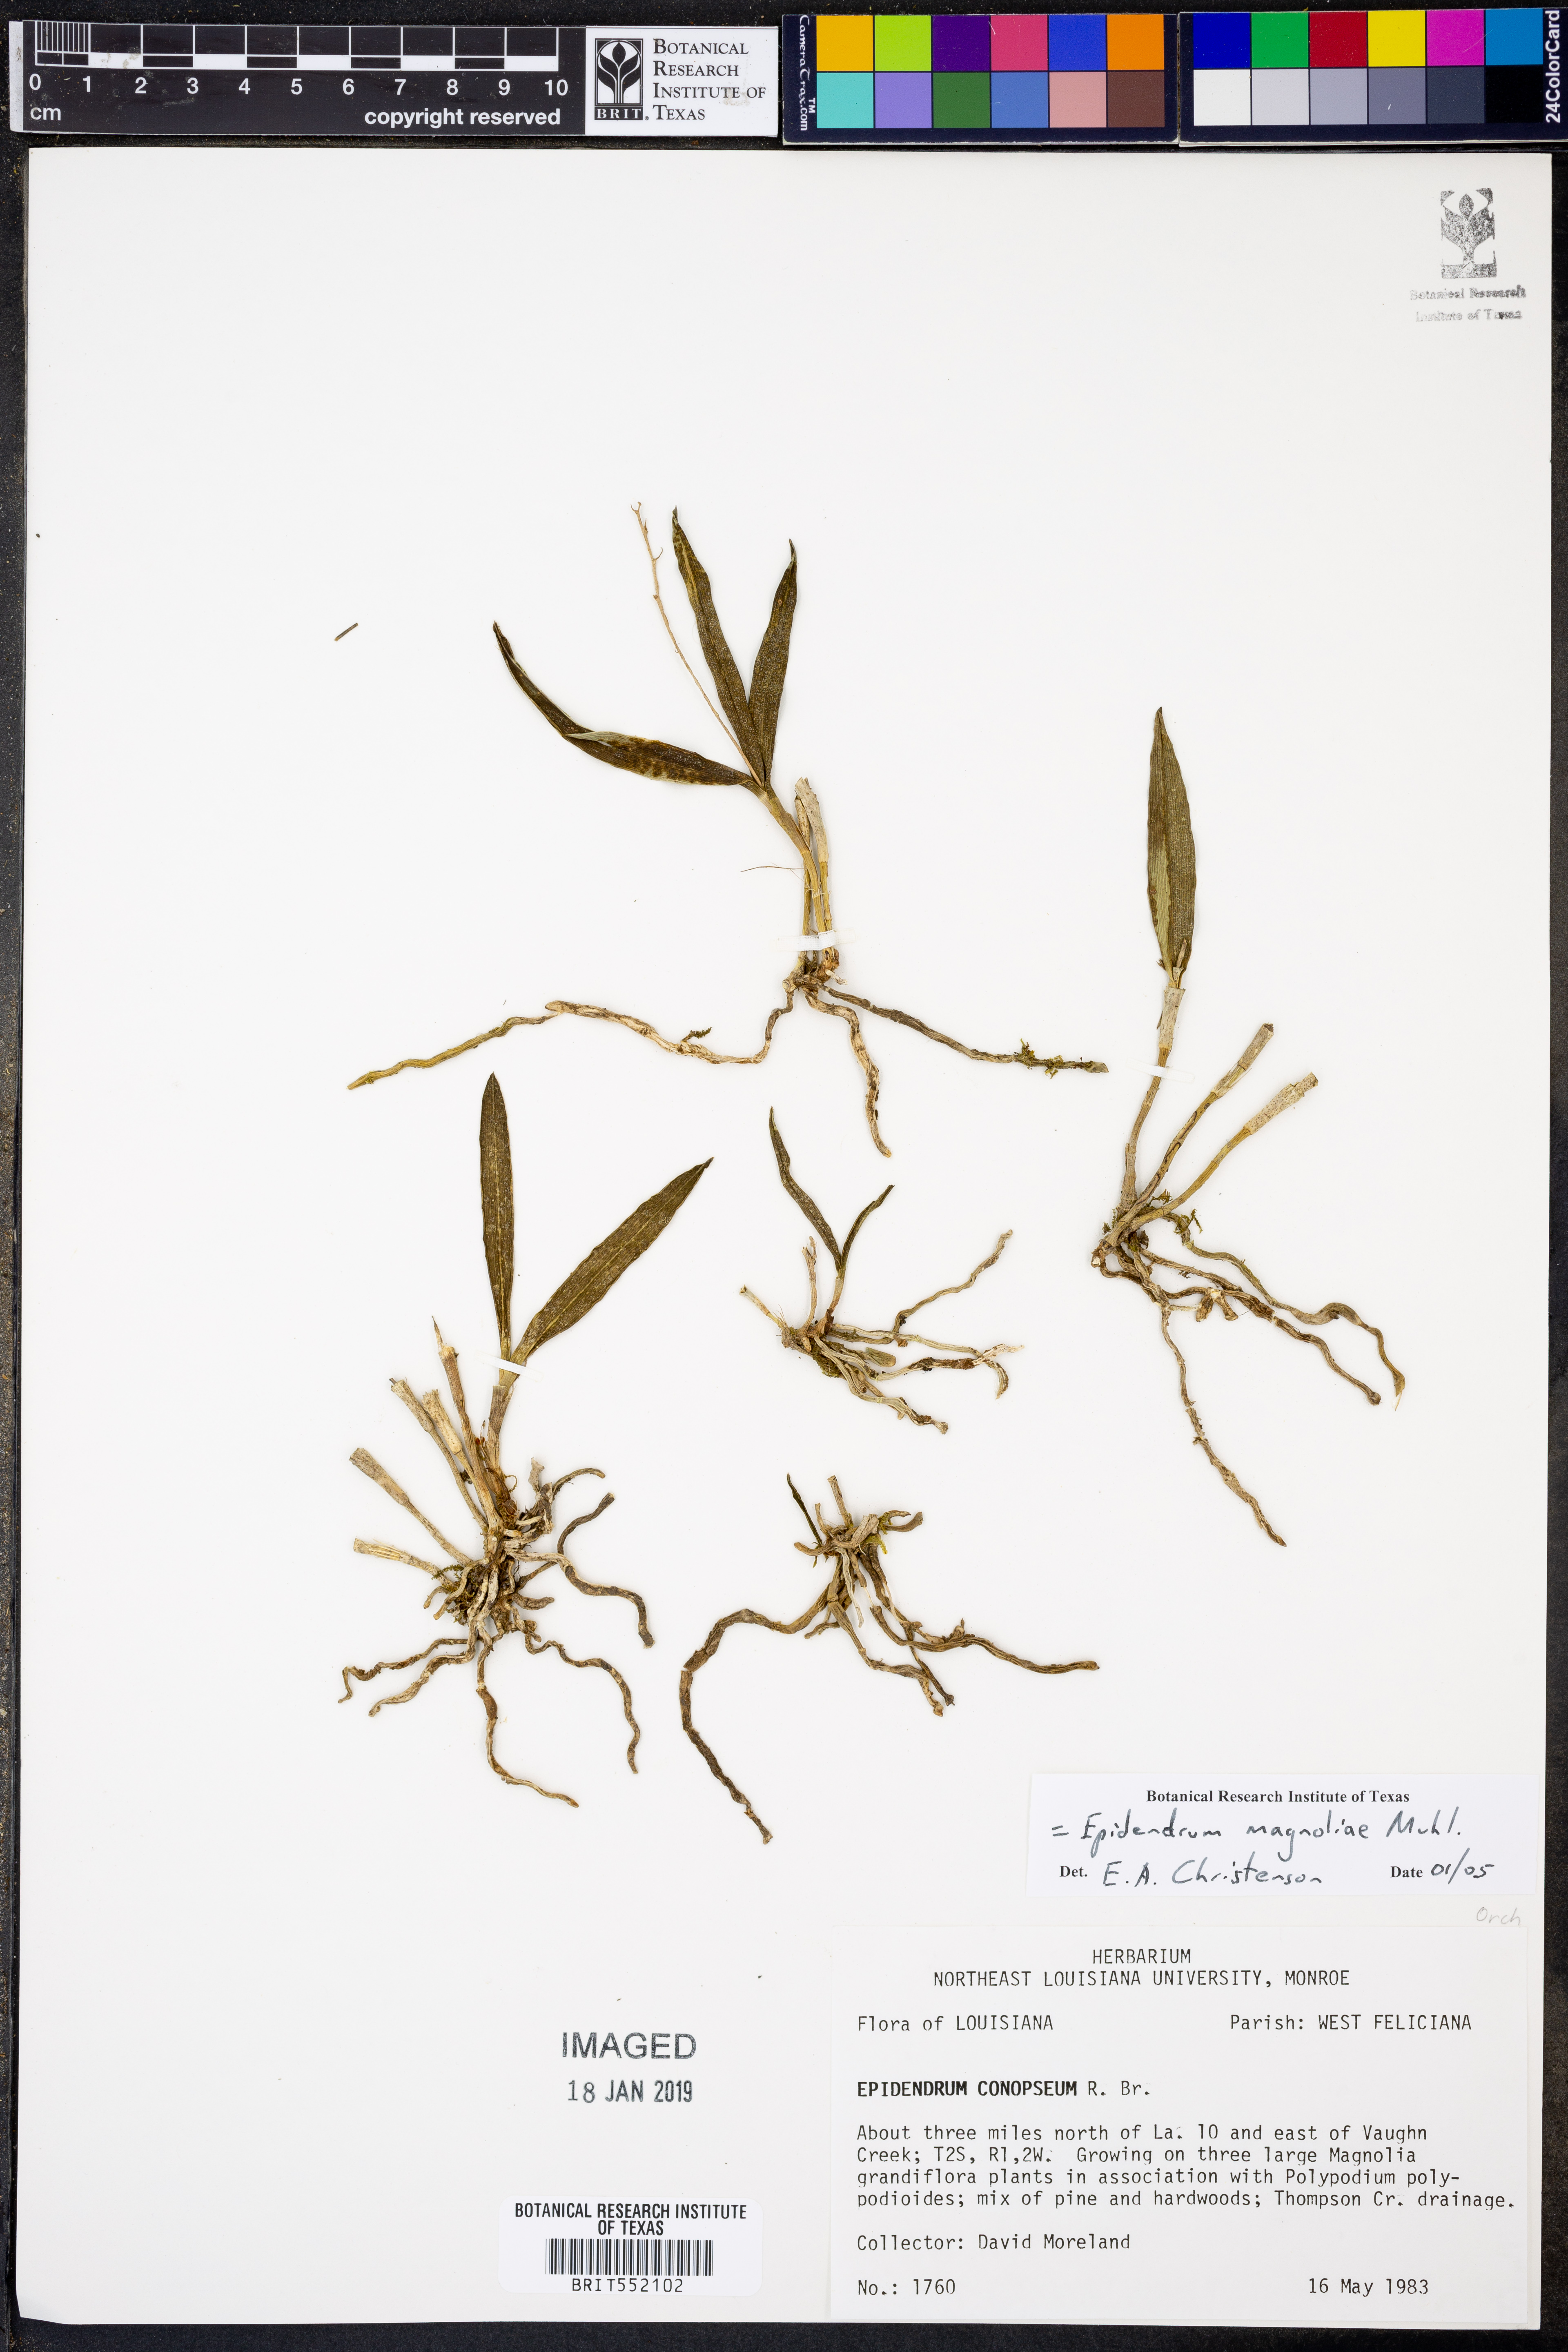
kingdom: Plantae
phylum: Tracheophyta
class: Liliopsida
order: Asparagales
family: Orchidaceae
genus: Epidendrum
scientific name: Epidendrum magnoliae
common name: Green fly orchid
